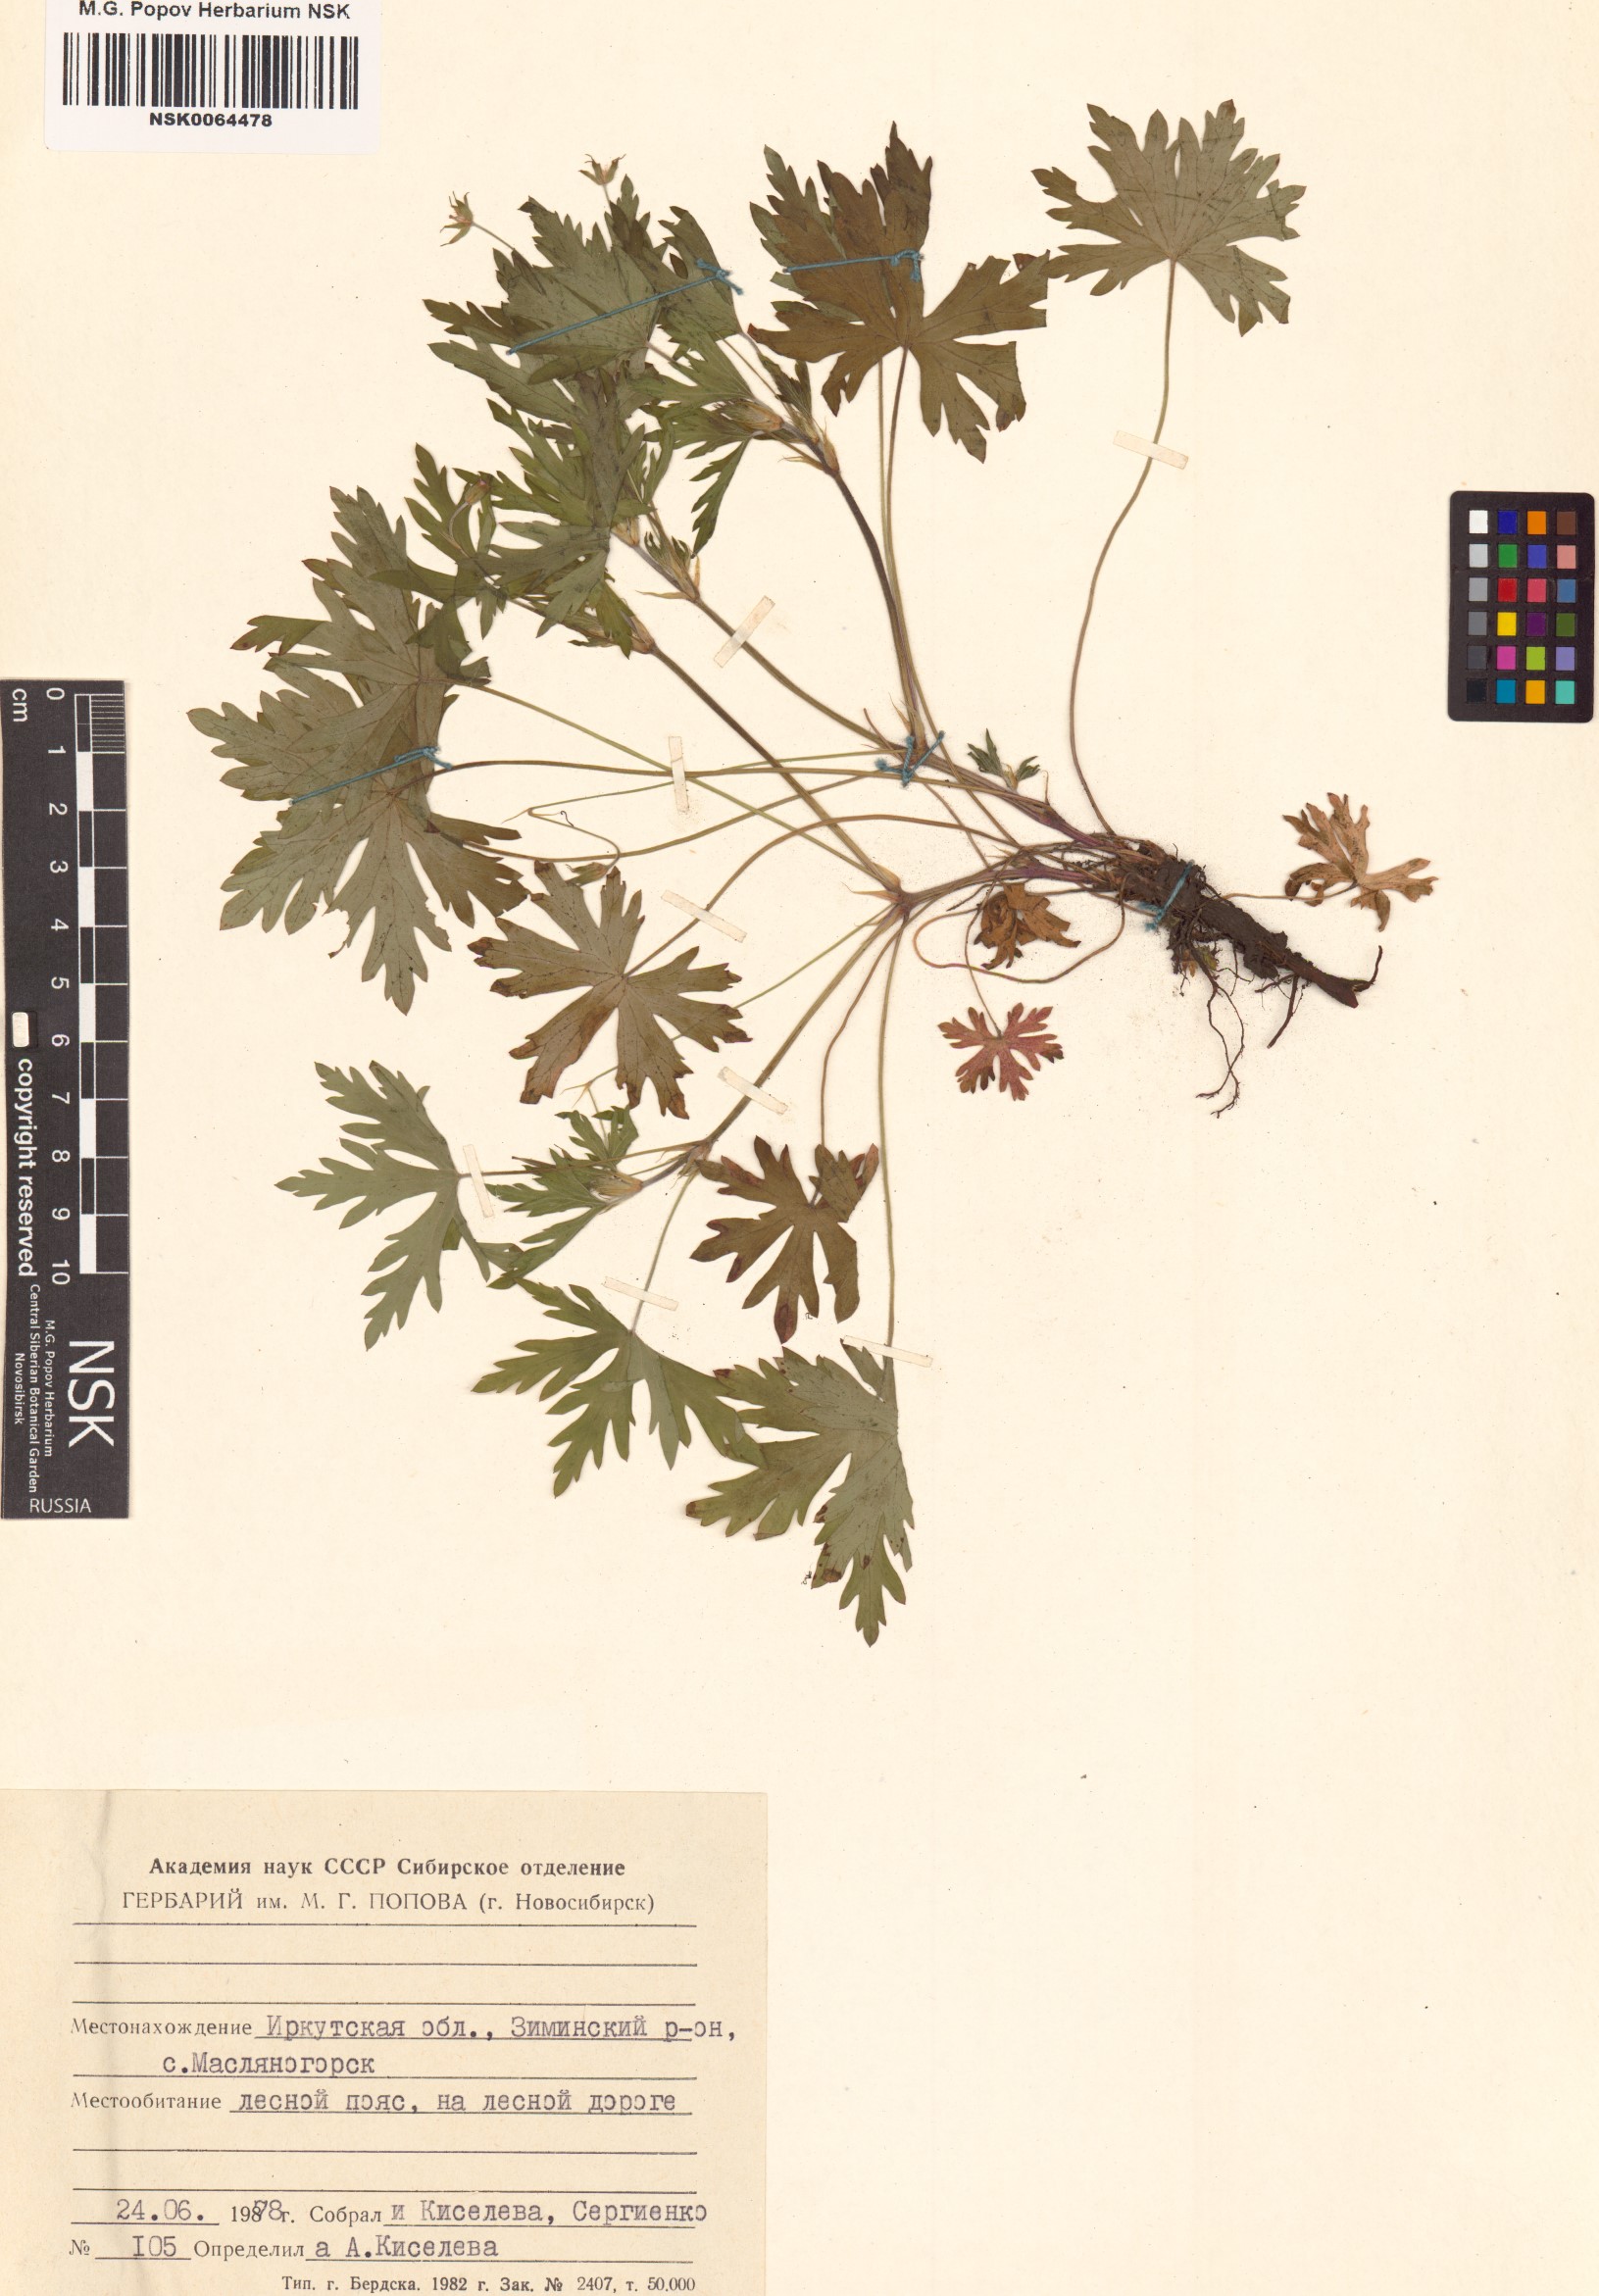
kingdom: Plantae
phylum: Tracheophyta
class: Magnoliopsida
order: Geraniales
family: Geraniaceae
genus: Geranium
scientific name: Geranium sibiricum
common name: Siberian crane's-bill
